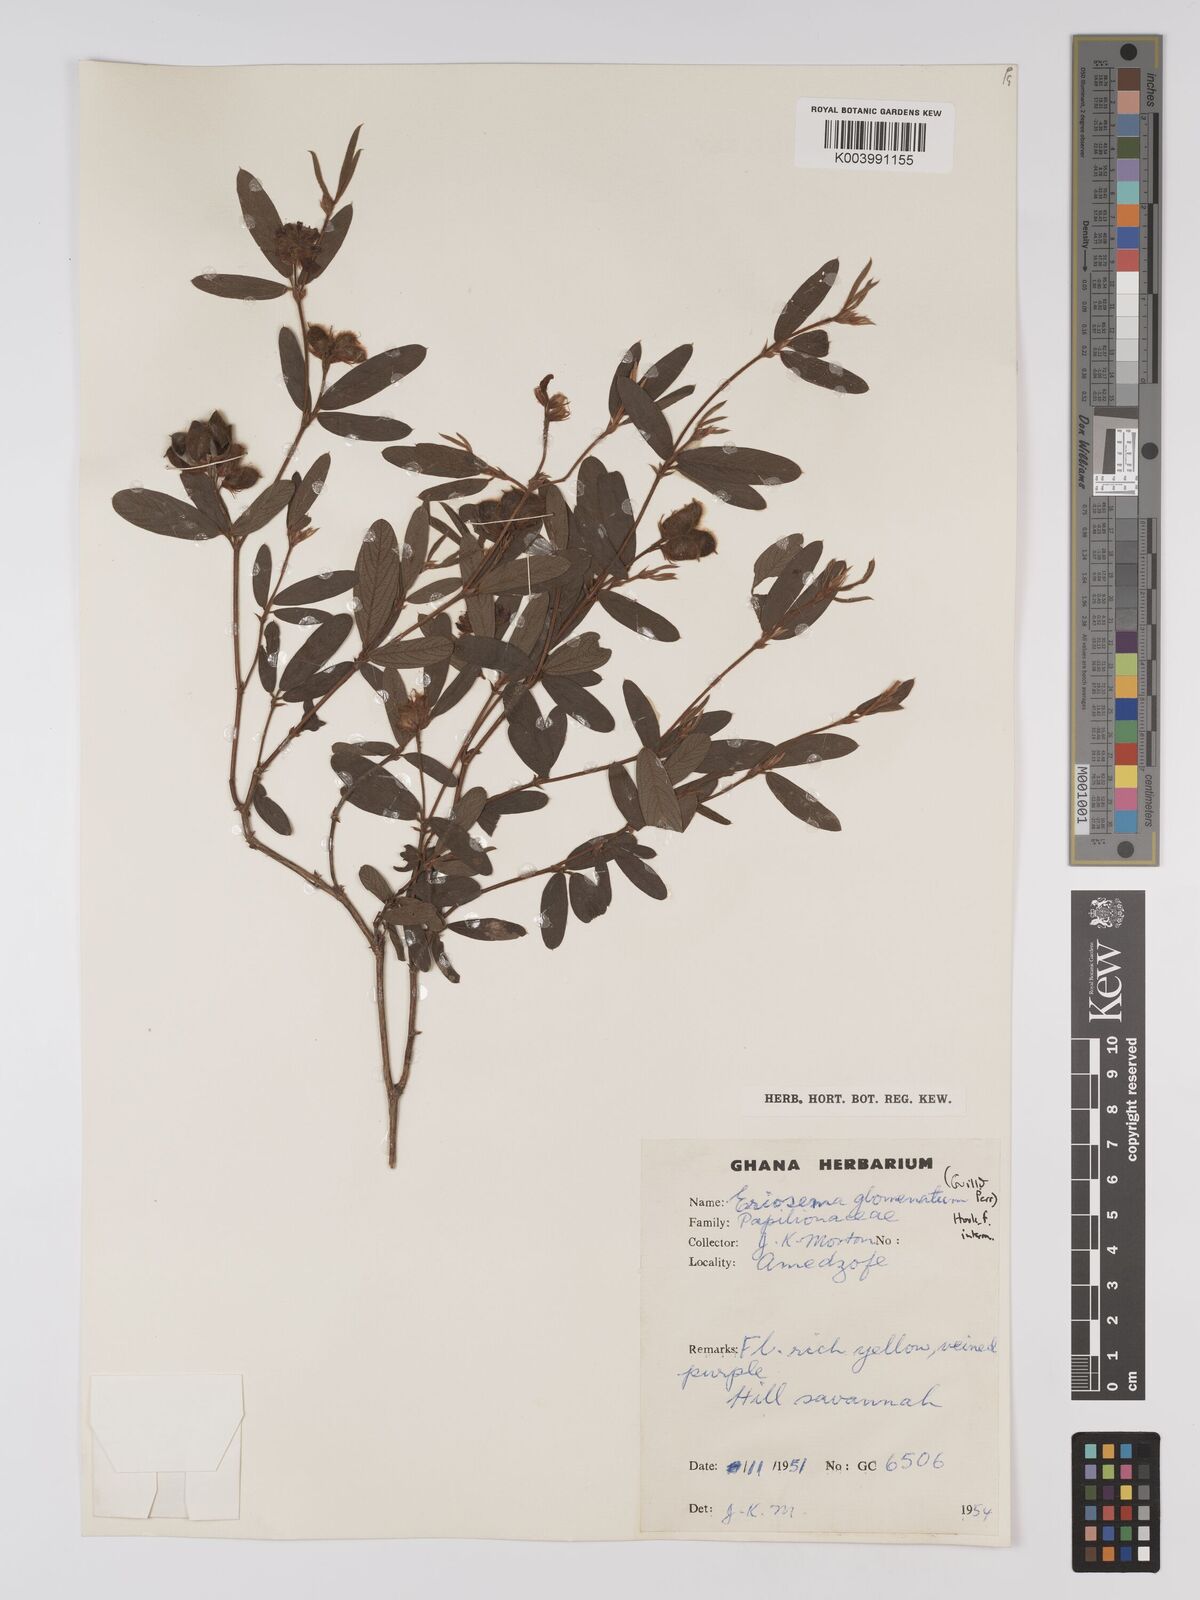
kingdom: Plantae
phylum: Tracheophyta
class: Magnoliopsida
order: Fabales
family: Fabaceae
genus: Eriosema
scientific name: Eriosema glomeratum
